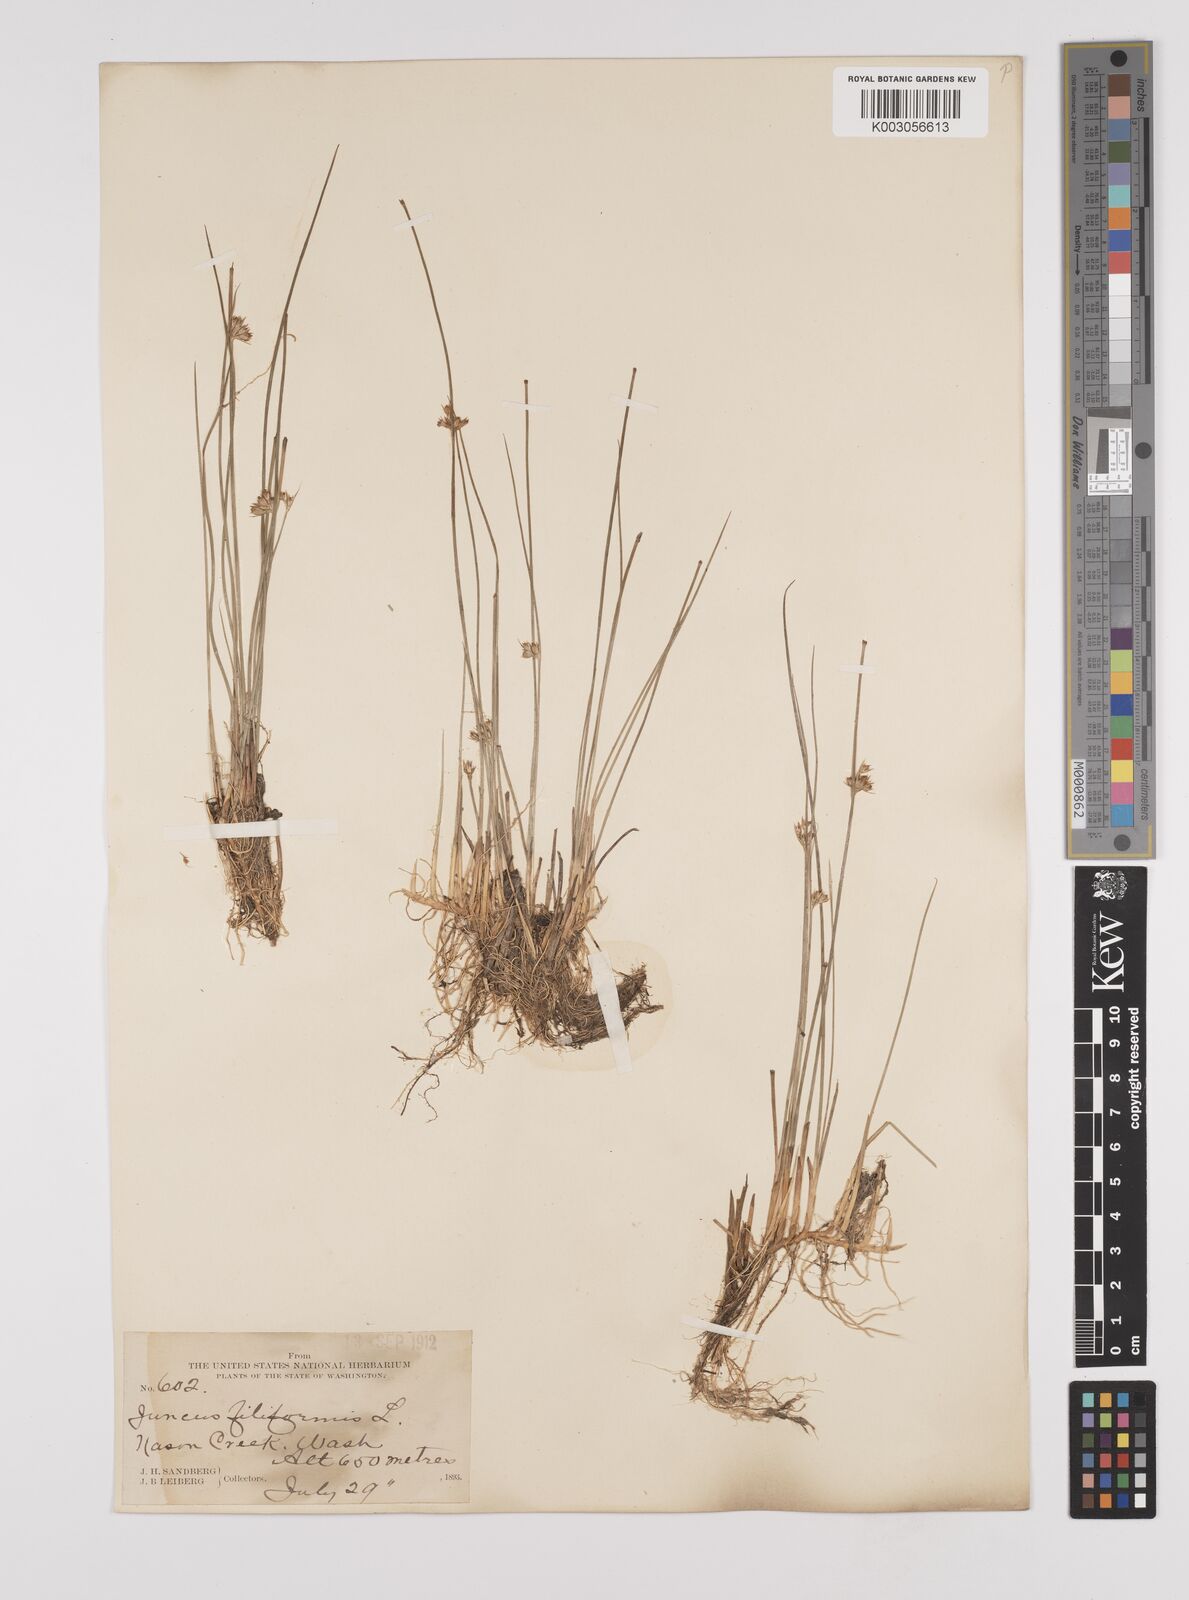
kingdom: Plantae
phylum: Tracheophyta
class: Liliopsida
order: Poales
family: Juncaceae
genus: Juncus
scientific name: Juncus filiformis
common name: Thread rush
